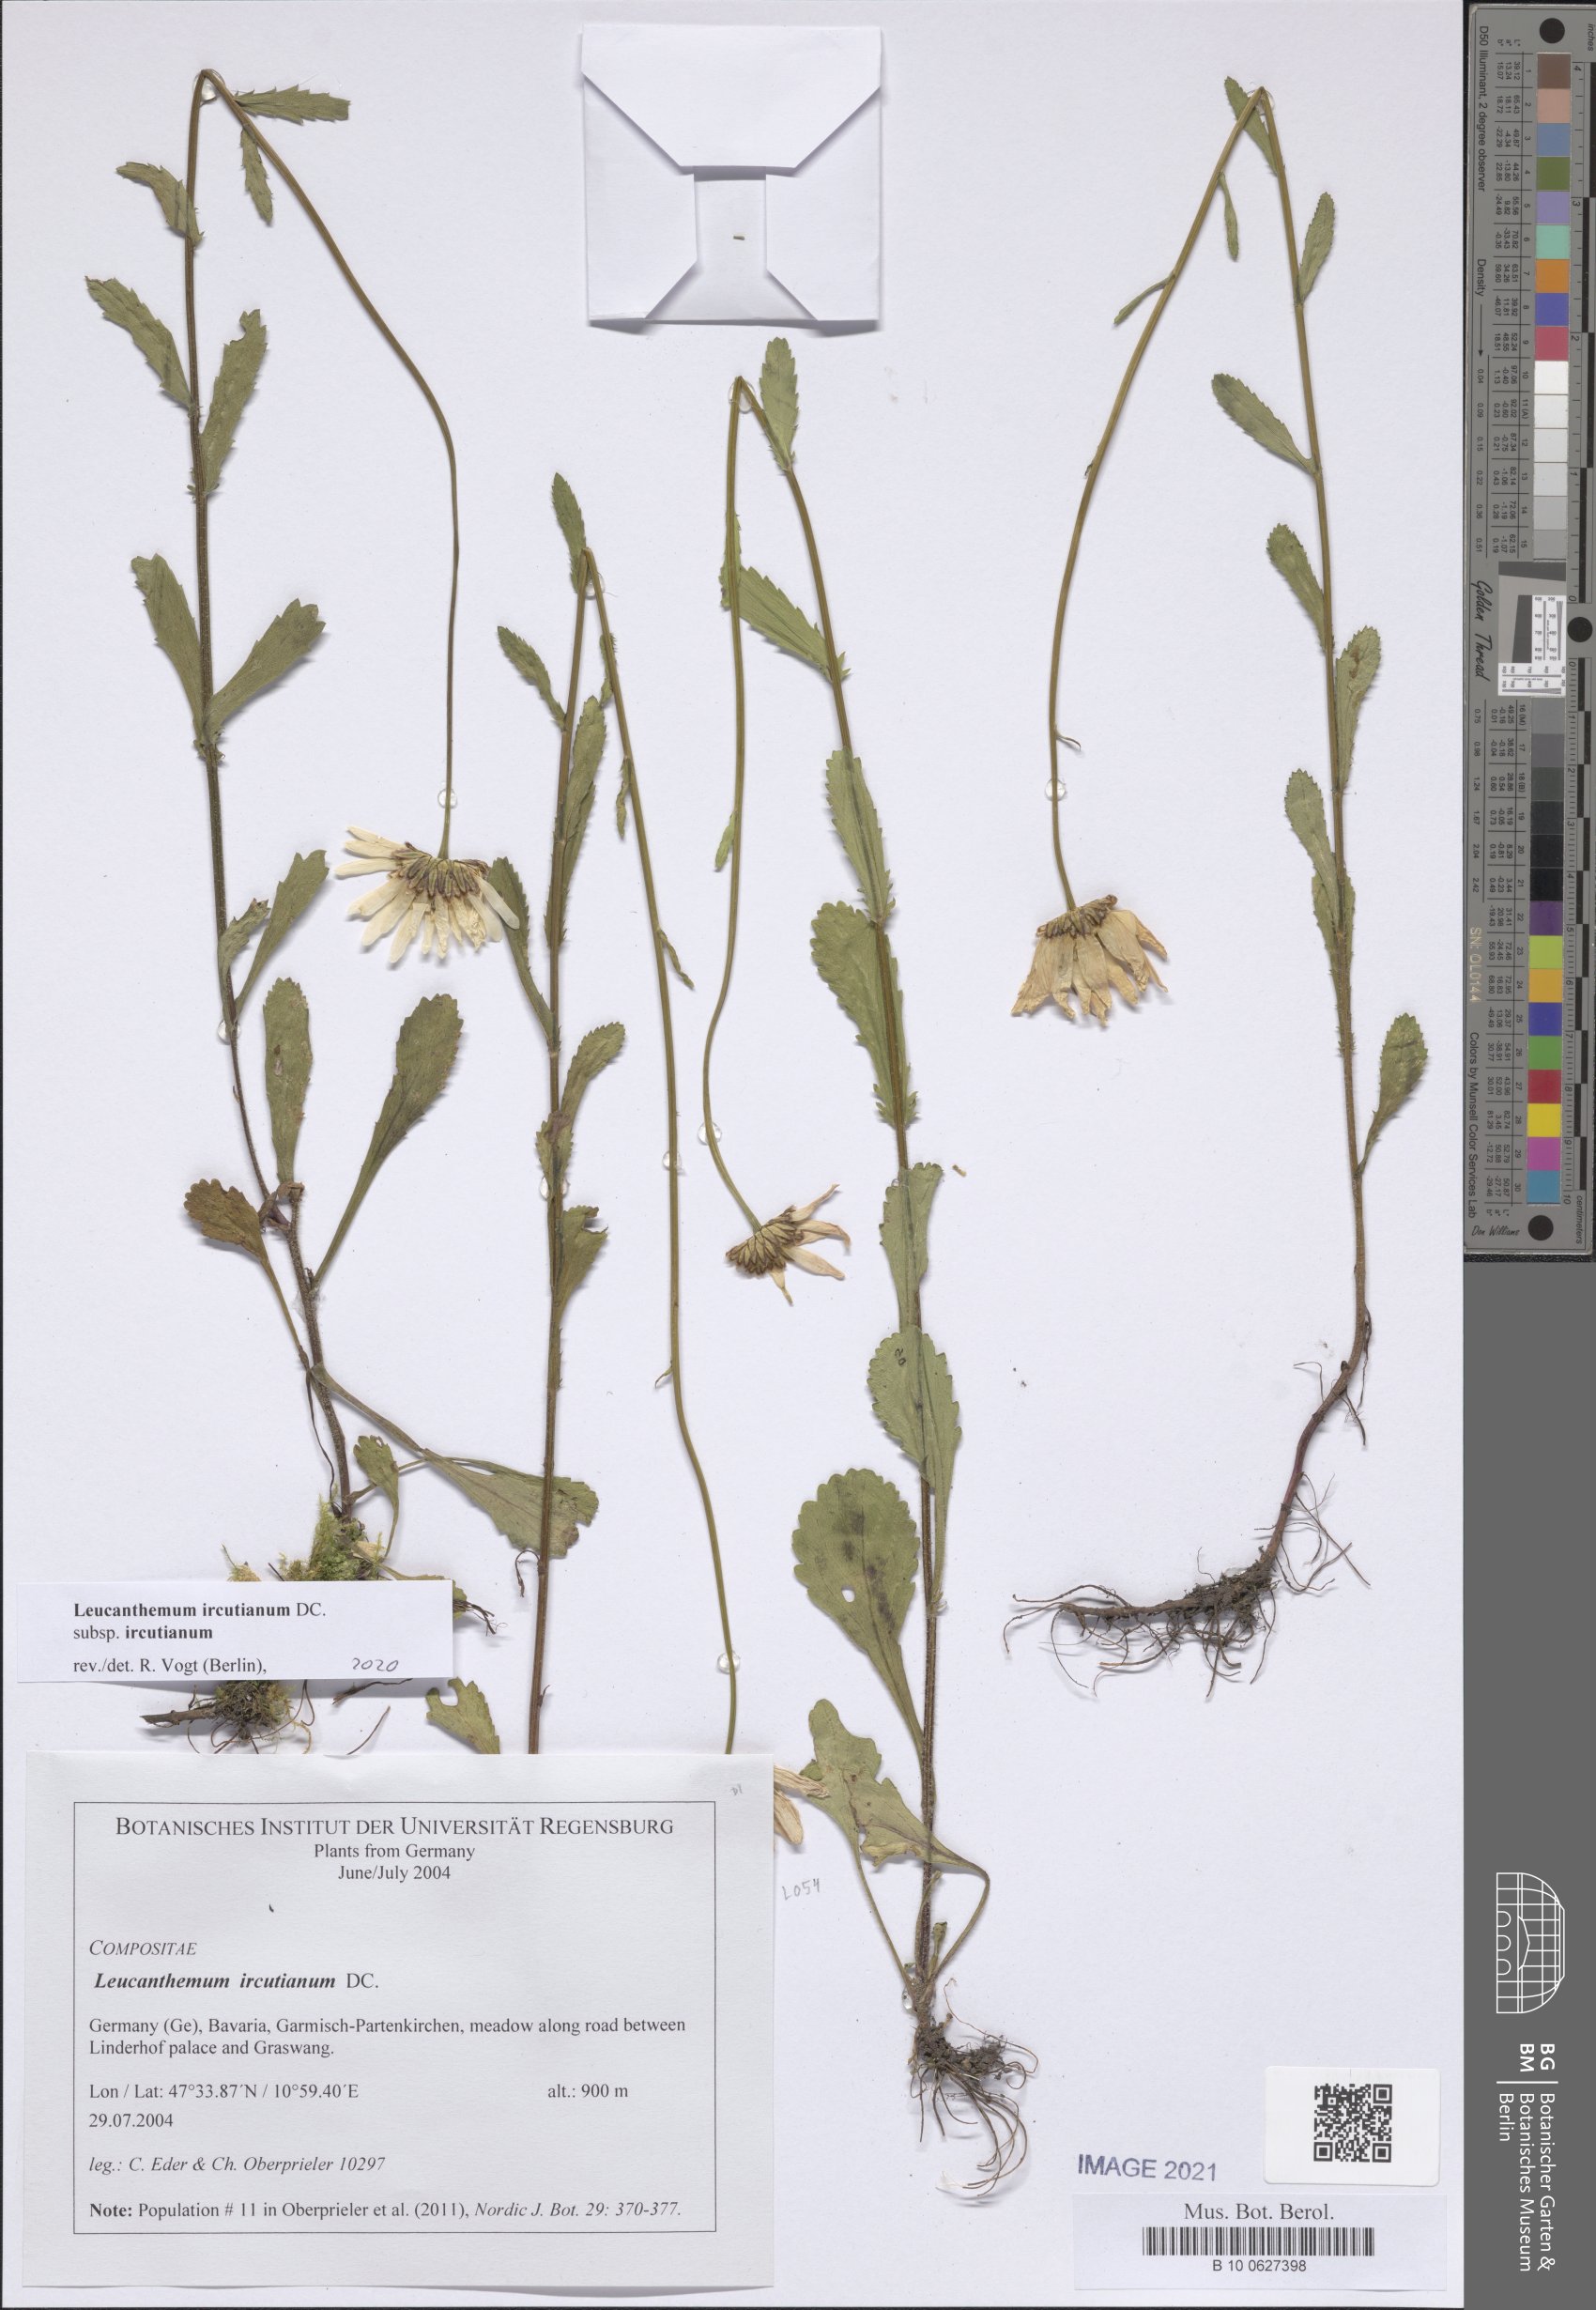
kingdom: Plantae
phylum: Tracheophyta
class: Magnoliopsida
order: Asterales
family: Asteraceae
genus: Leucanthemum
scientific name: Leucanthemum ircutianum
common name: Daisy
